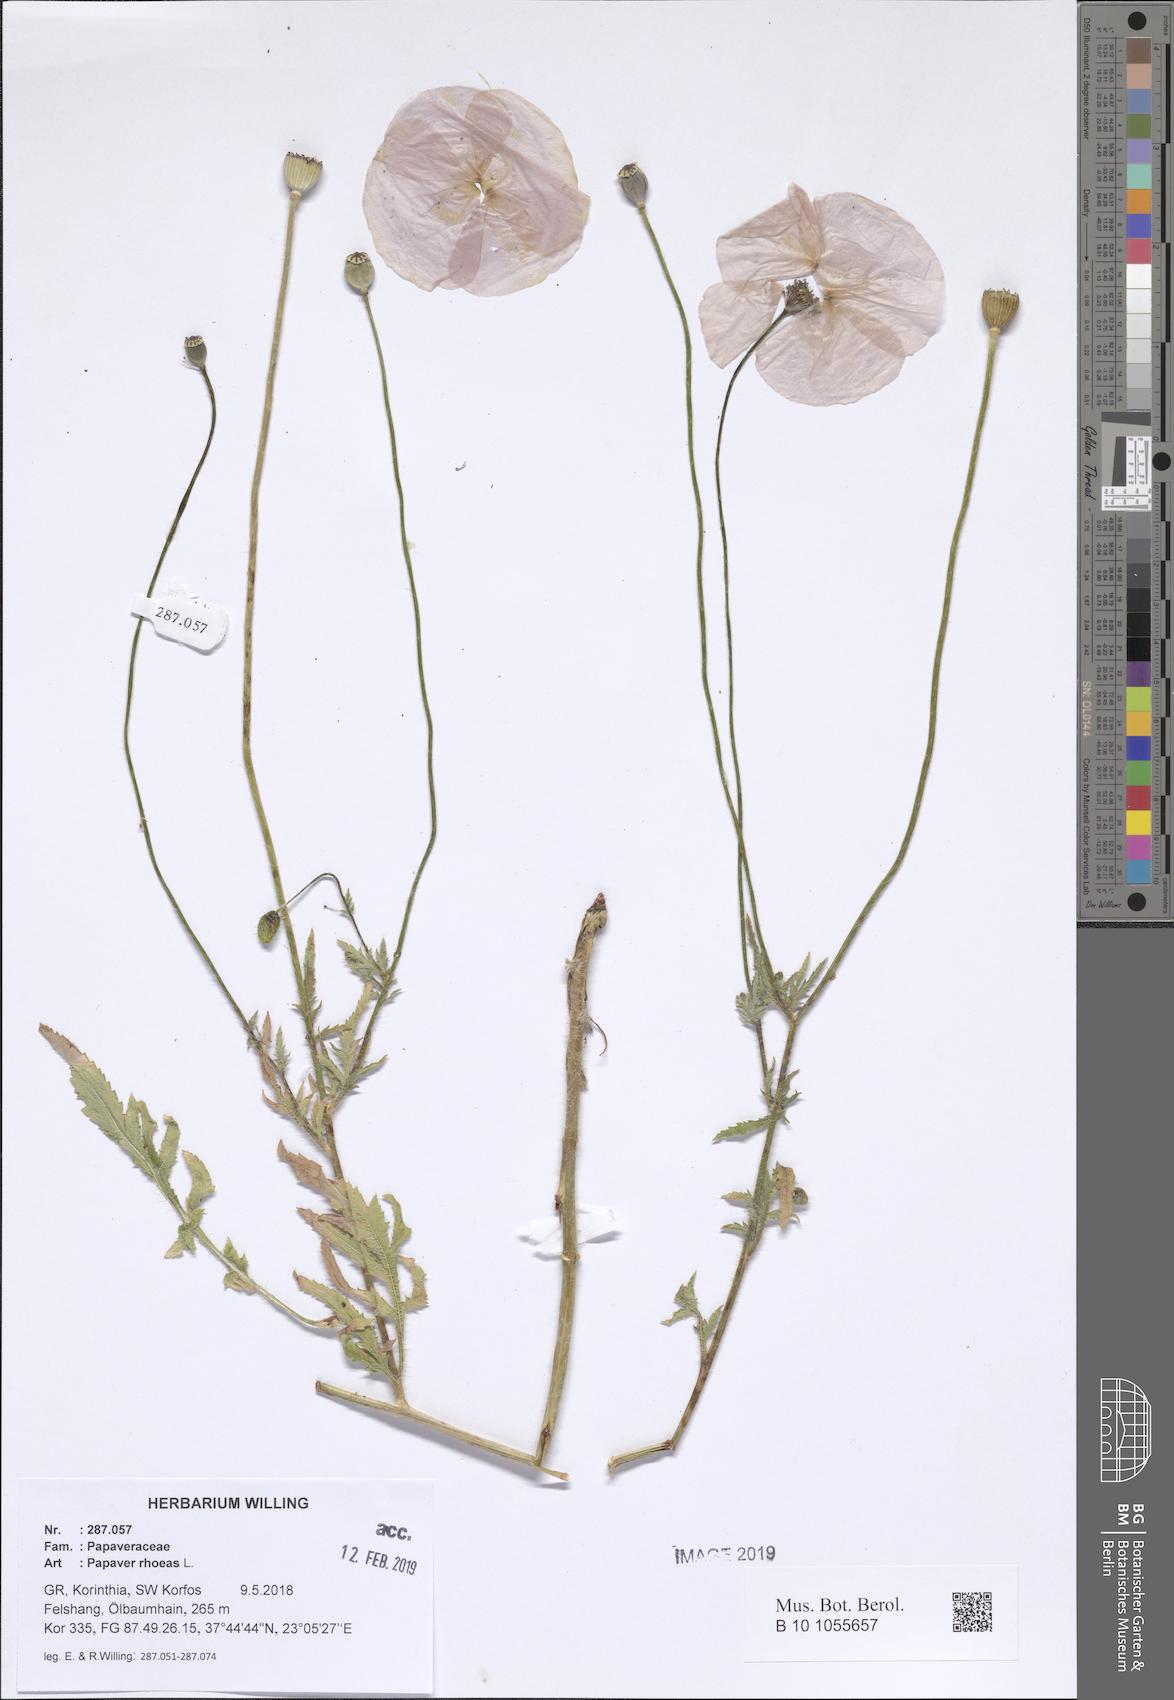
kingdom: Plantae
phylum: Tracheophyta
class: Magnoliopsida
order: Ranunculales
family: Papaveraceae
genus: Papaver
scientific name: Papaver rhoeas
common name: Corn poppy
